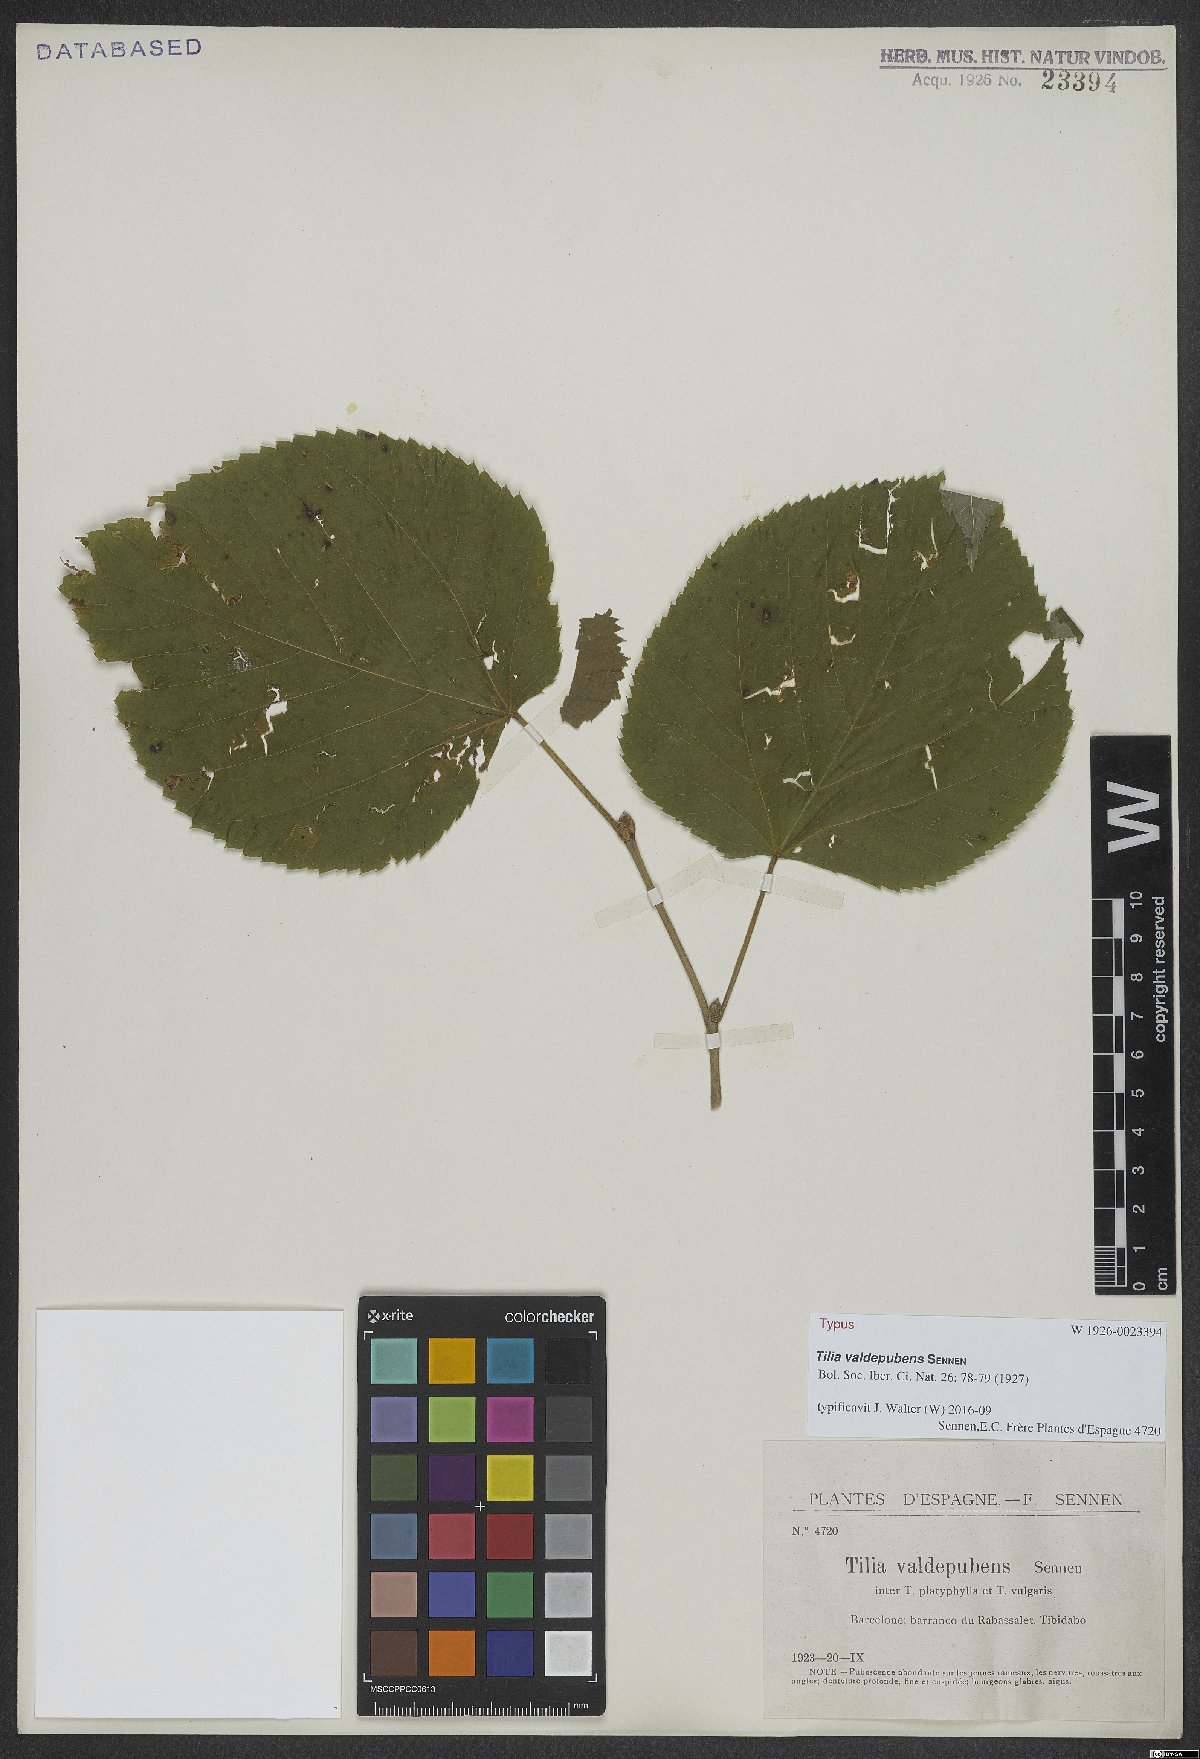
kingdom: Plantae
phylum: Tracheophyta
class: Magnoliopsida
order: Malvales
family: Malvaceae
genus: Tilia
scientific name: Tilia valdepubens
